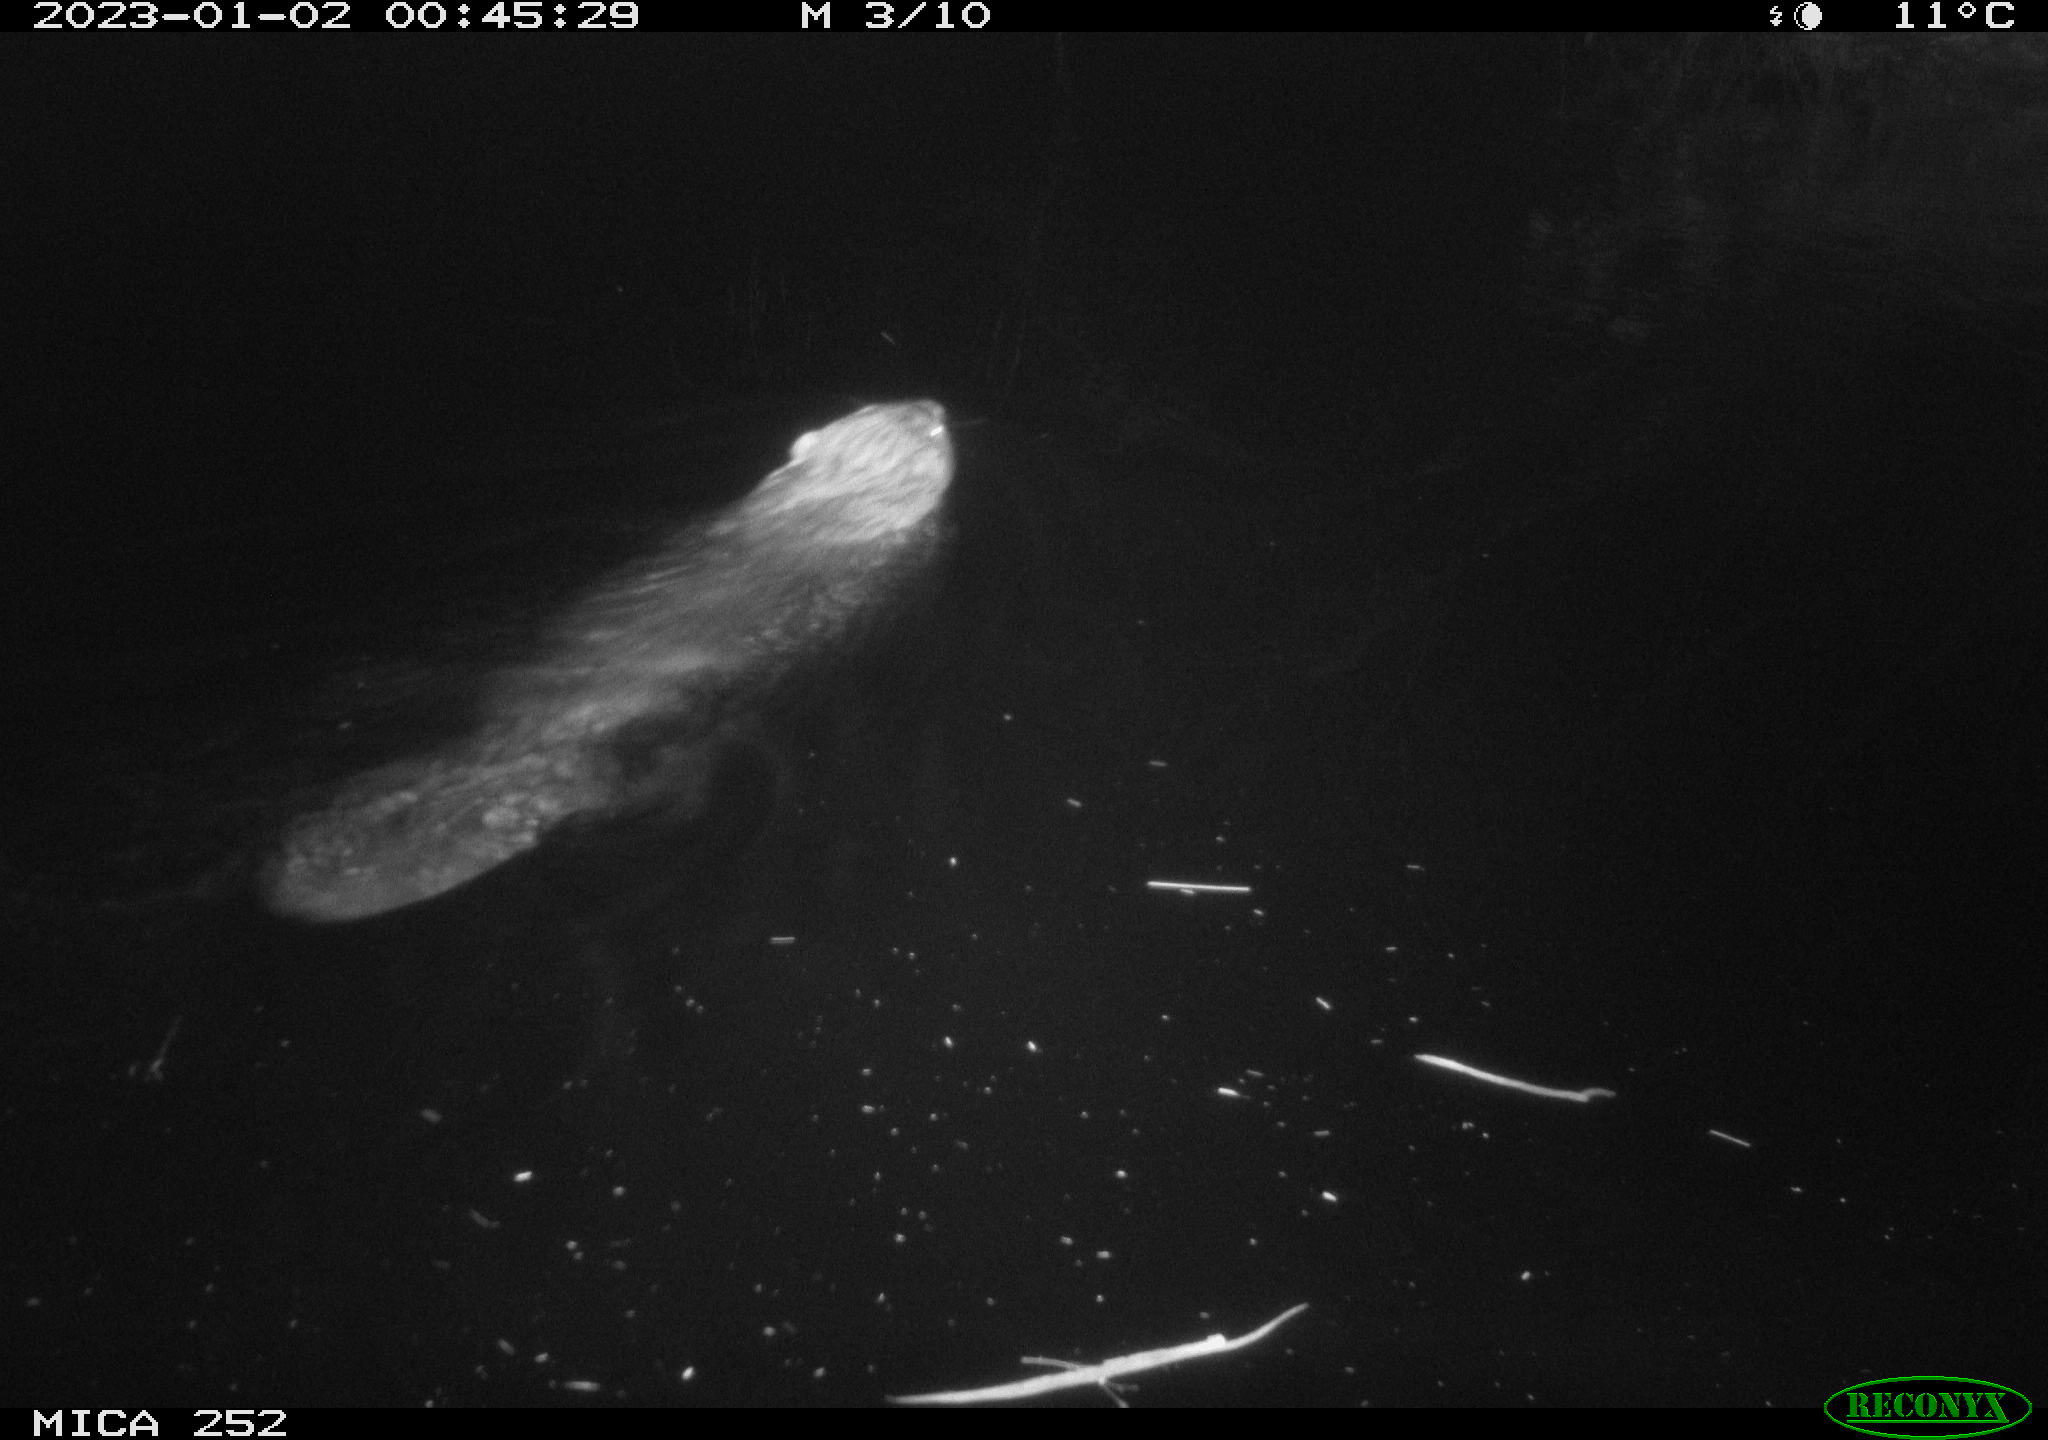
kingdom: Animalia
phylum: Chordata
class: Mammalia
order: Rodentia
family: Castoridae
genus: Castor
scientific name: Castor fiber
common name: Eurasian beaver
